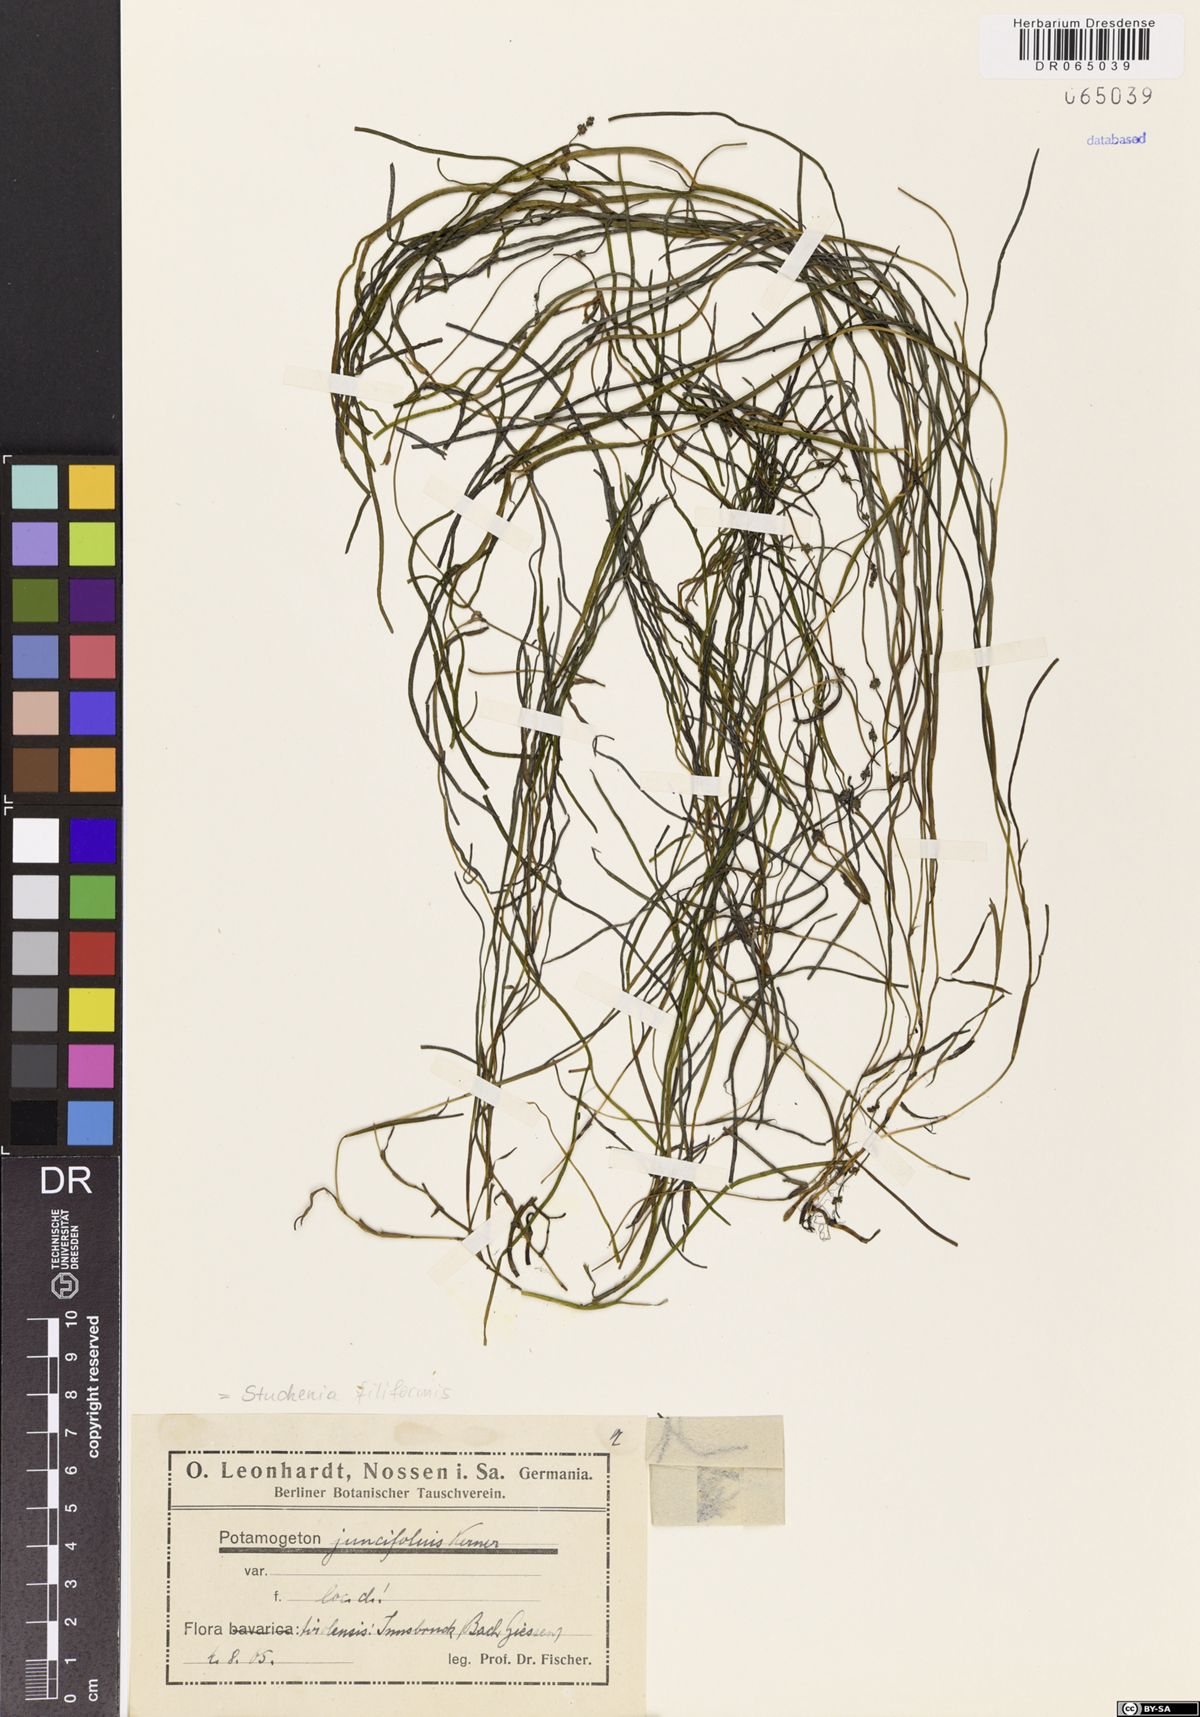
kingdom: Plantae
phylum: Tracheophyta
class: Liliopsida
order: Alismatales
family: Potamogetonaceae
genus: Stuckenia
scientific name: Stuckenia filiformis
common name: Alpine thread-leaved pondweed
